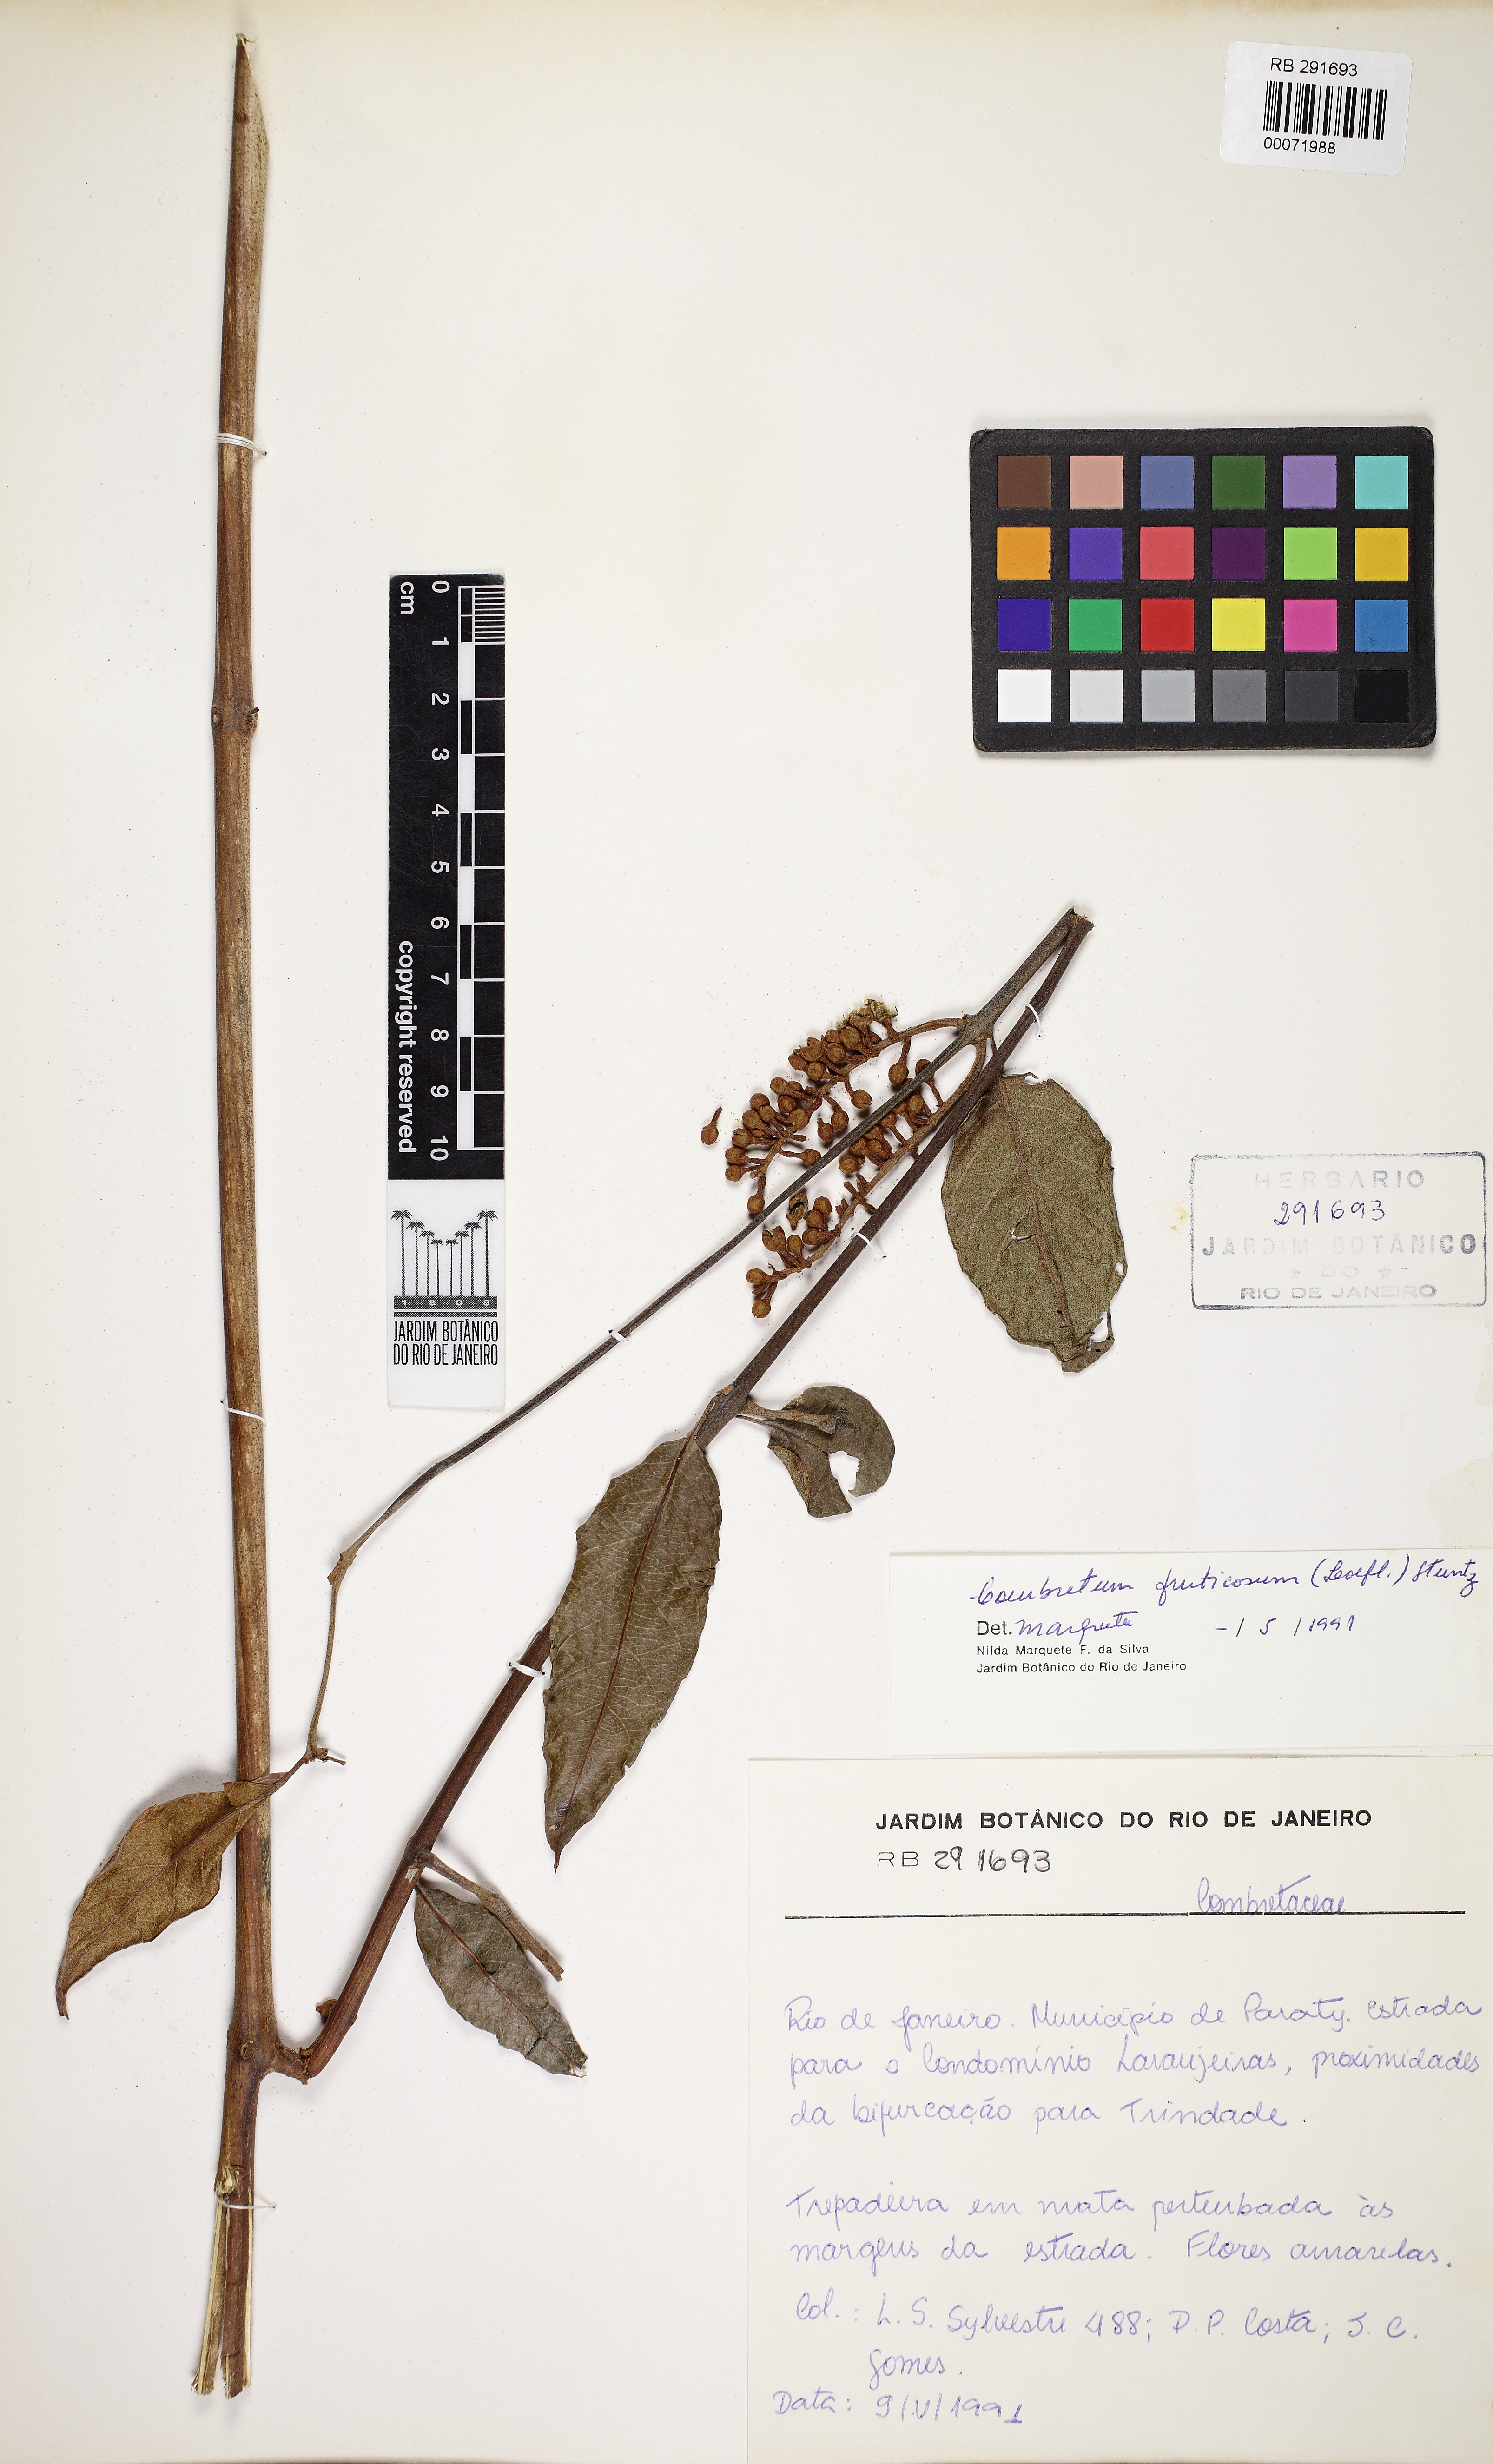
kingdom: Plantae
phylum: Tracheophyta
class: Magnoliopsida
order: Myrtales
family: Combretaceae
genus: Combretum
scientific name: Combretum fruticosum
